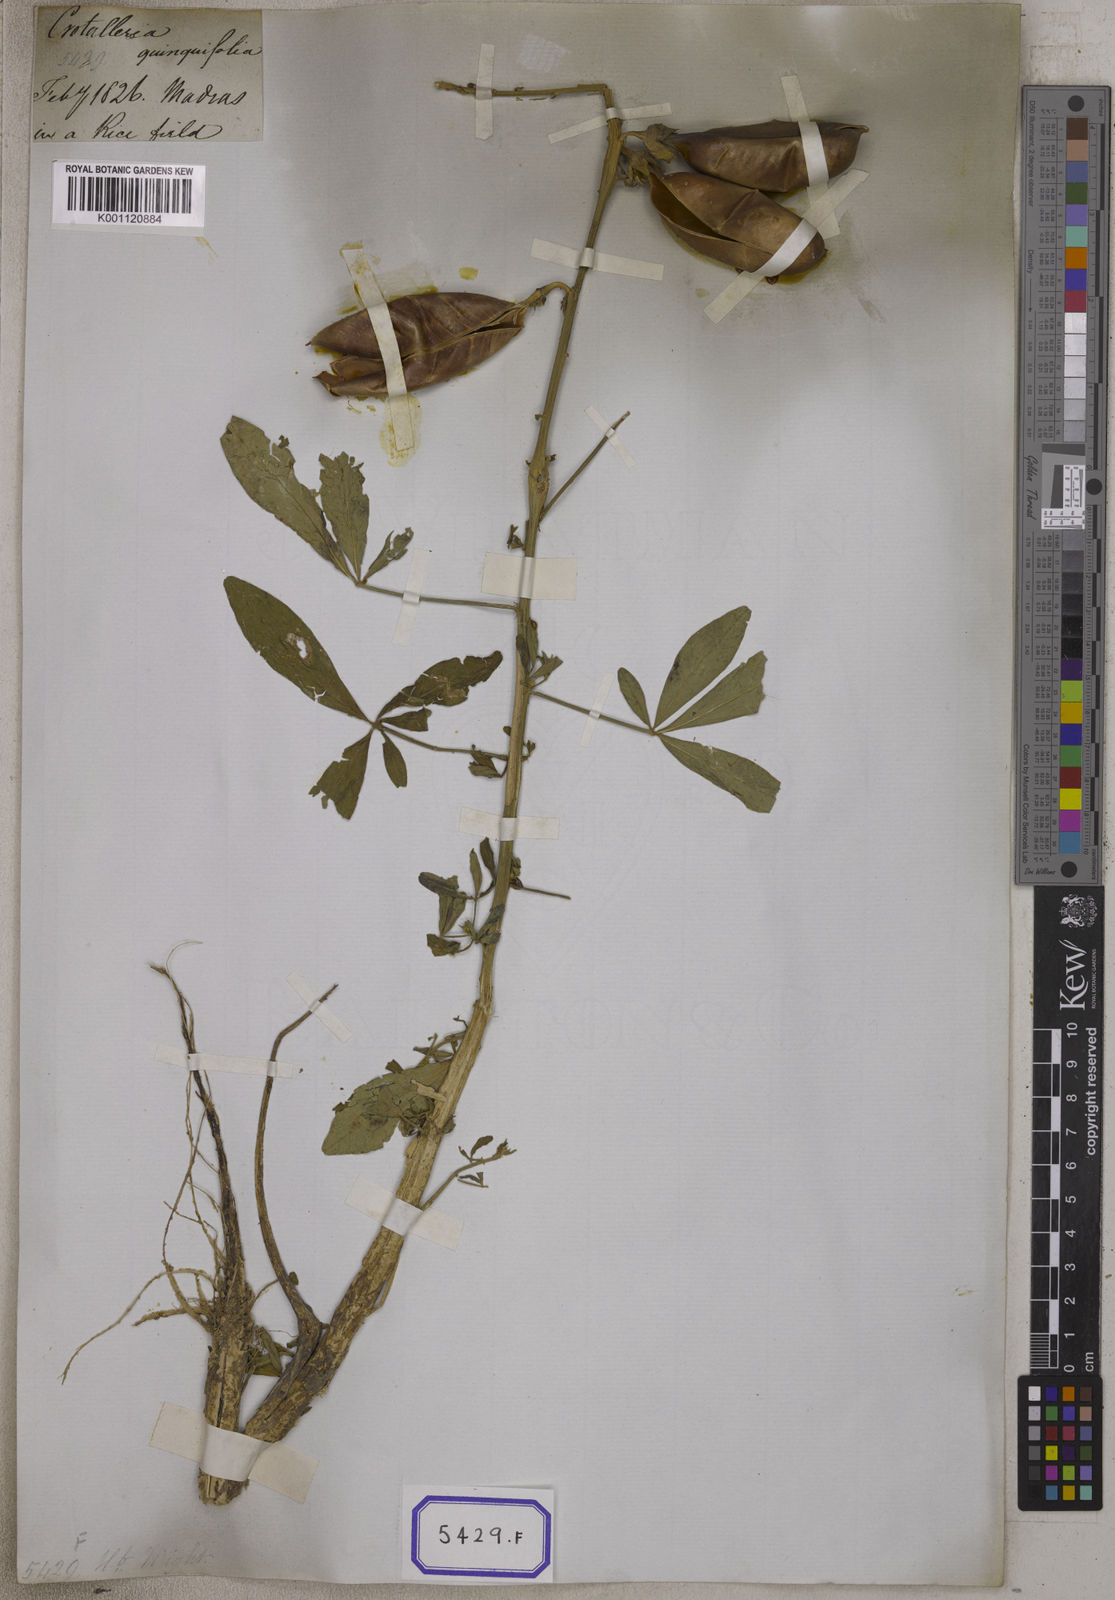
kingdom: Plantae
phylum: Tracheophyta
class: Magnoliopsida
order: Fabales
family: Fabaceae
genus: Crotalaria
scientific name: Crotalaria quinquefolia
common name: Five-leaf crotalaria
